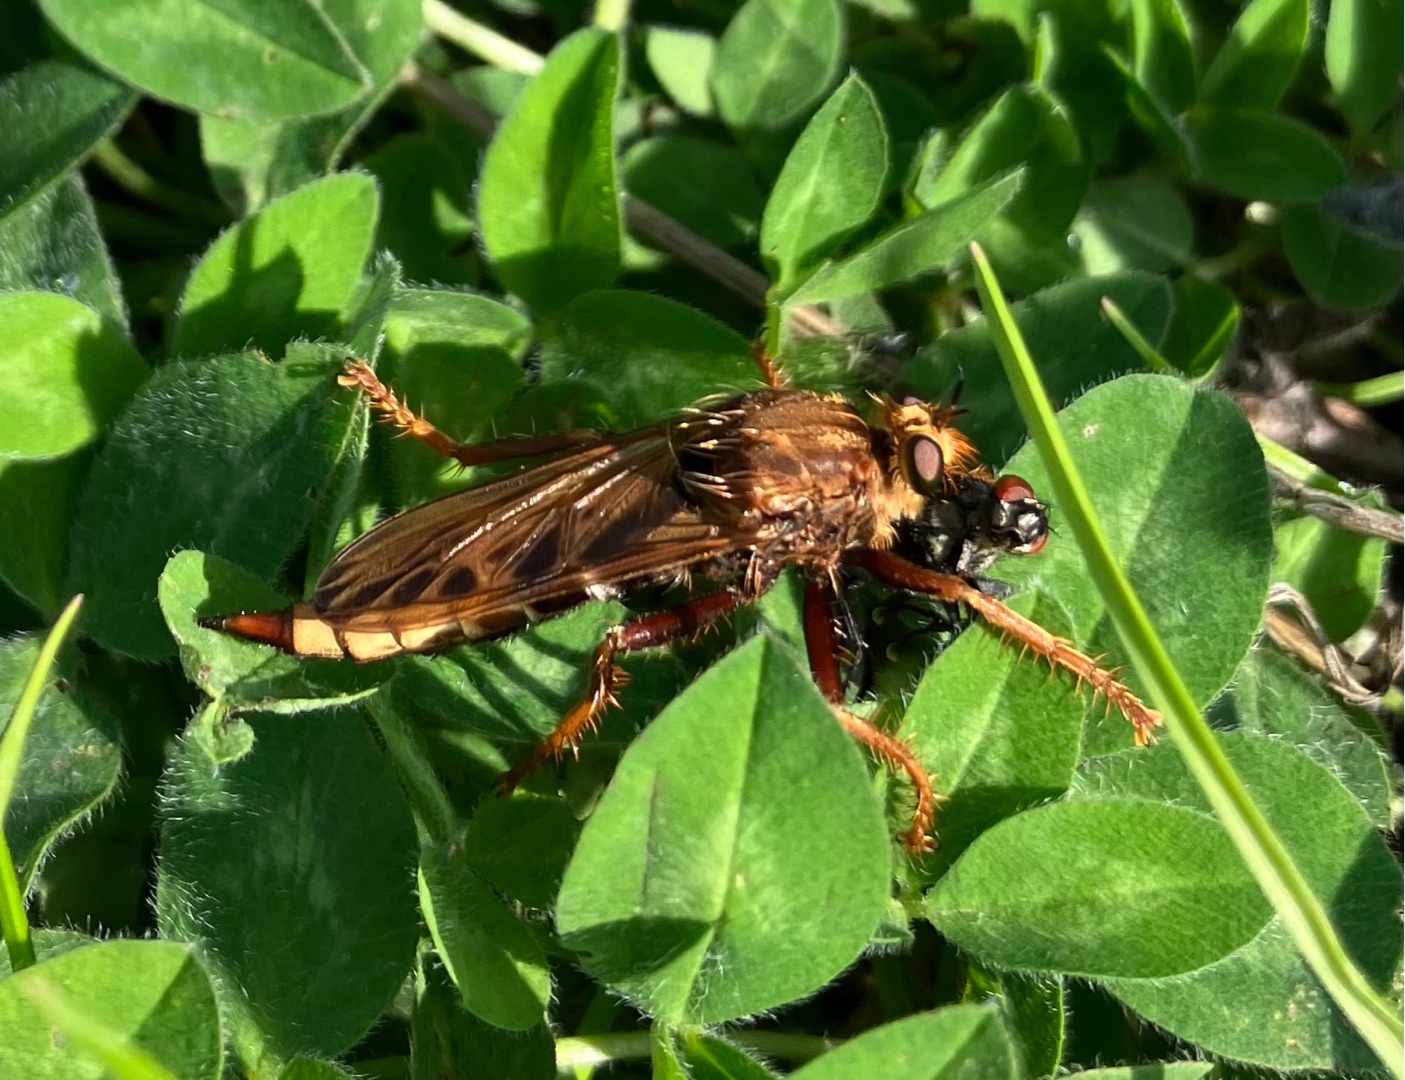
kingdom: Animalia
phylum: Arthropoda
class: Insecta
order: Diptera
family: Asilidae
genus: Asilus
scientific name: Asilus crabroniformis
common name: Stor gødningsrovflue
